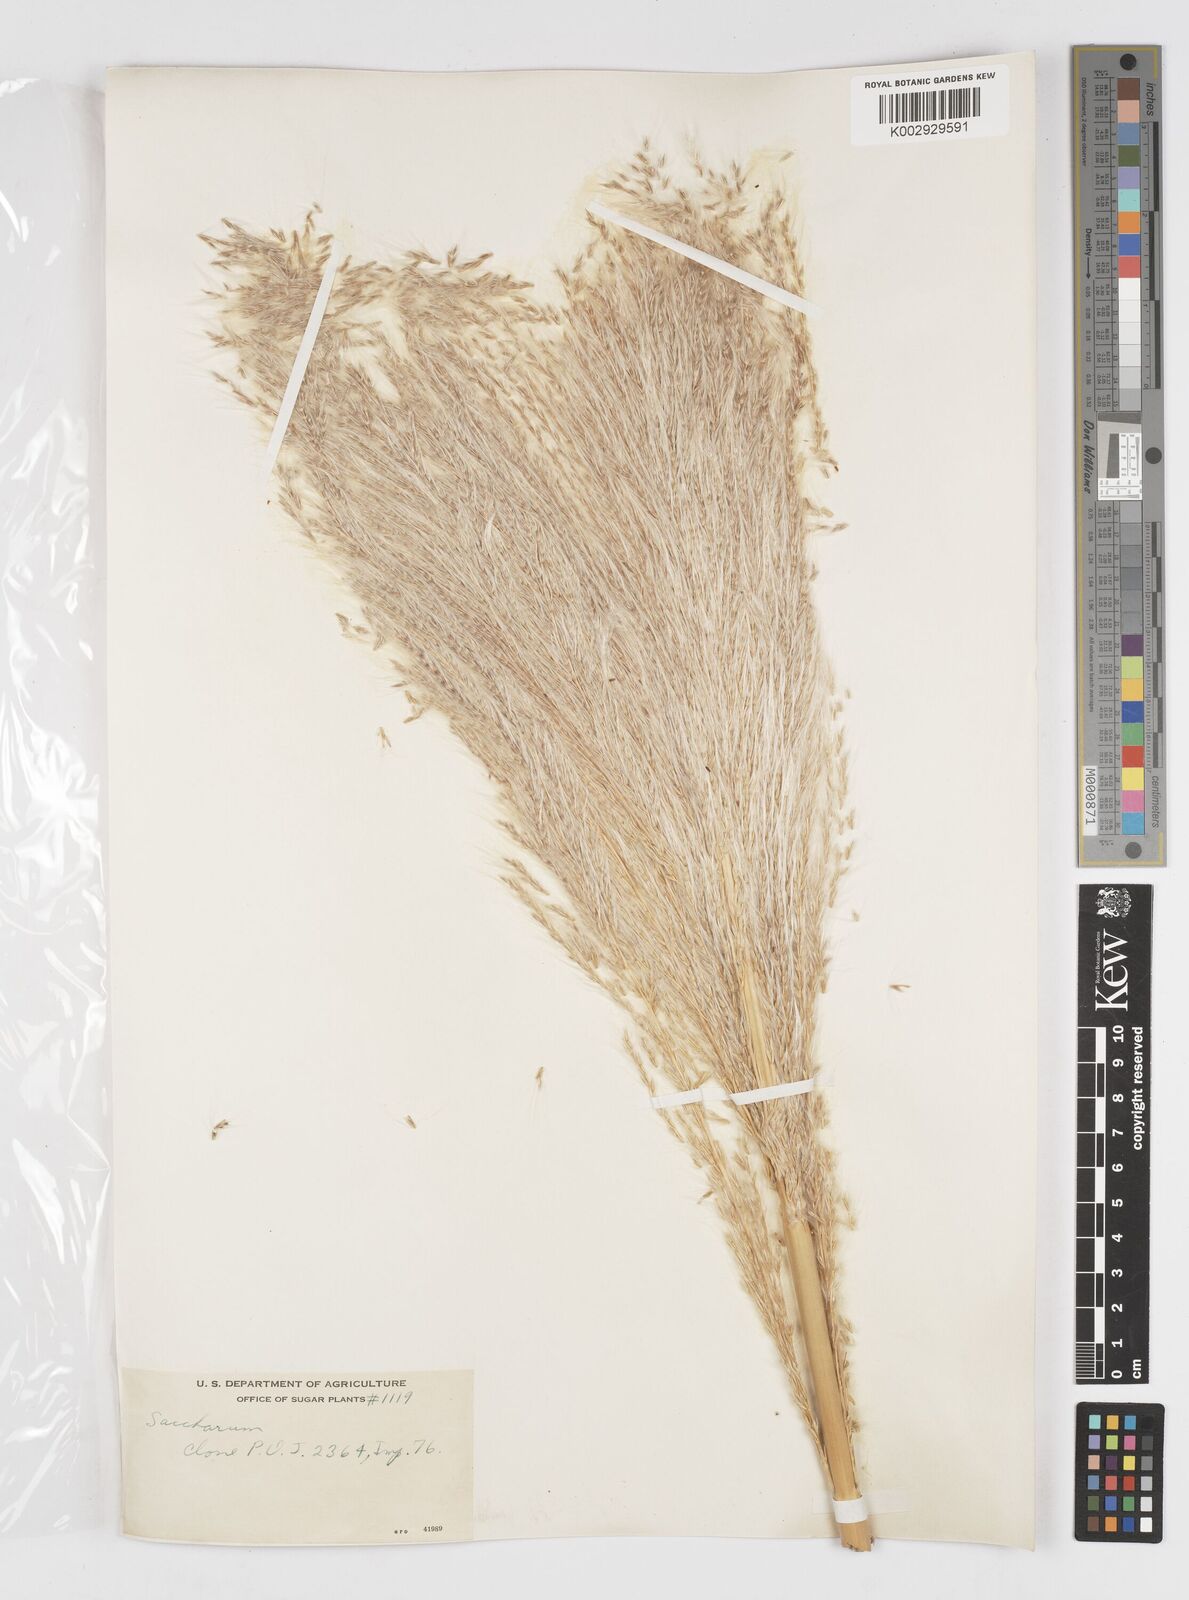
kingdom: Plantae
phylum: Tracheophyta
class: Liliopsida
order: Poales
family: Poaceae
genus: Saccharum
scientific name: Saccharum officinarum
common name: Sugarcane
